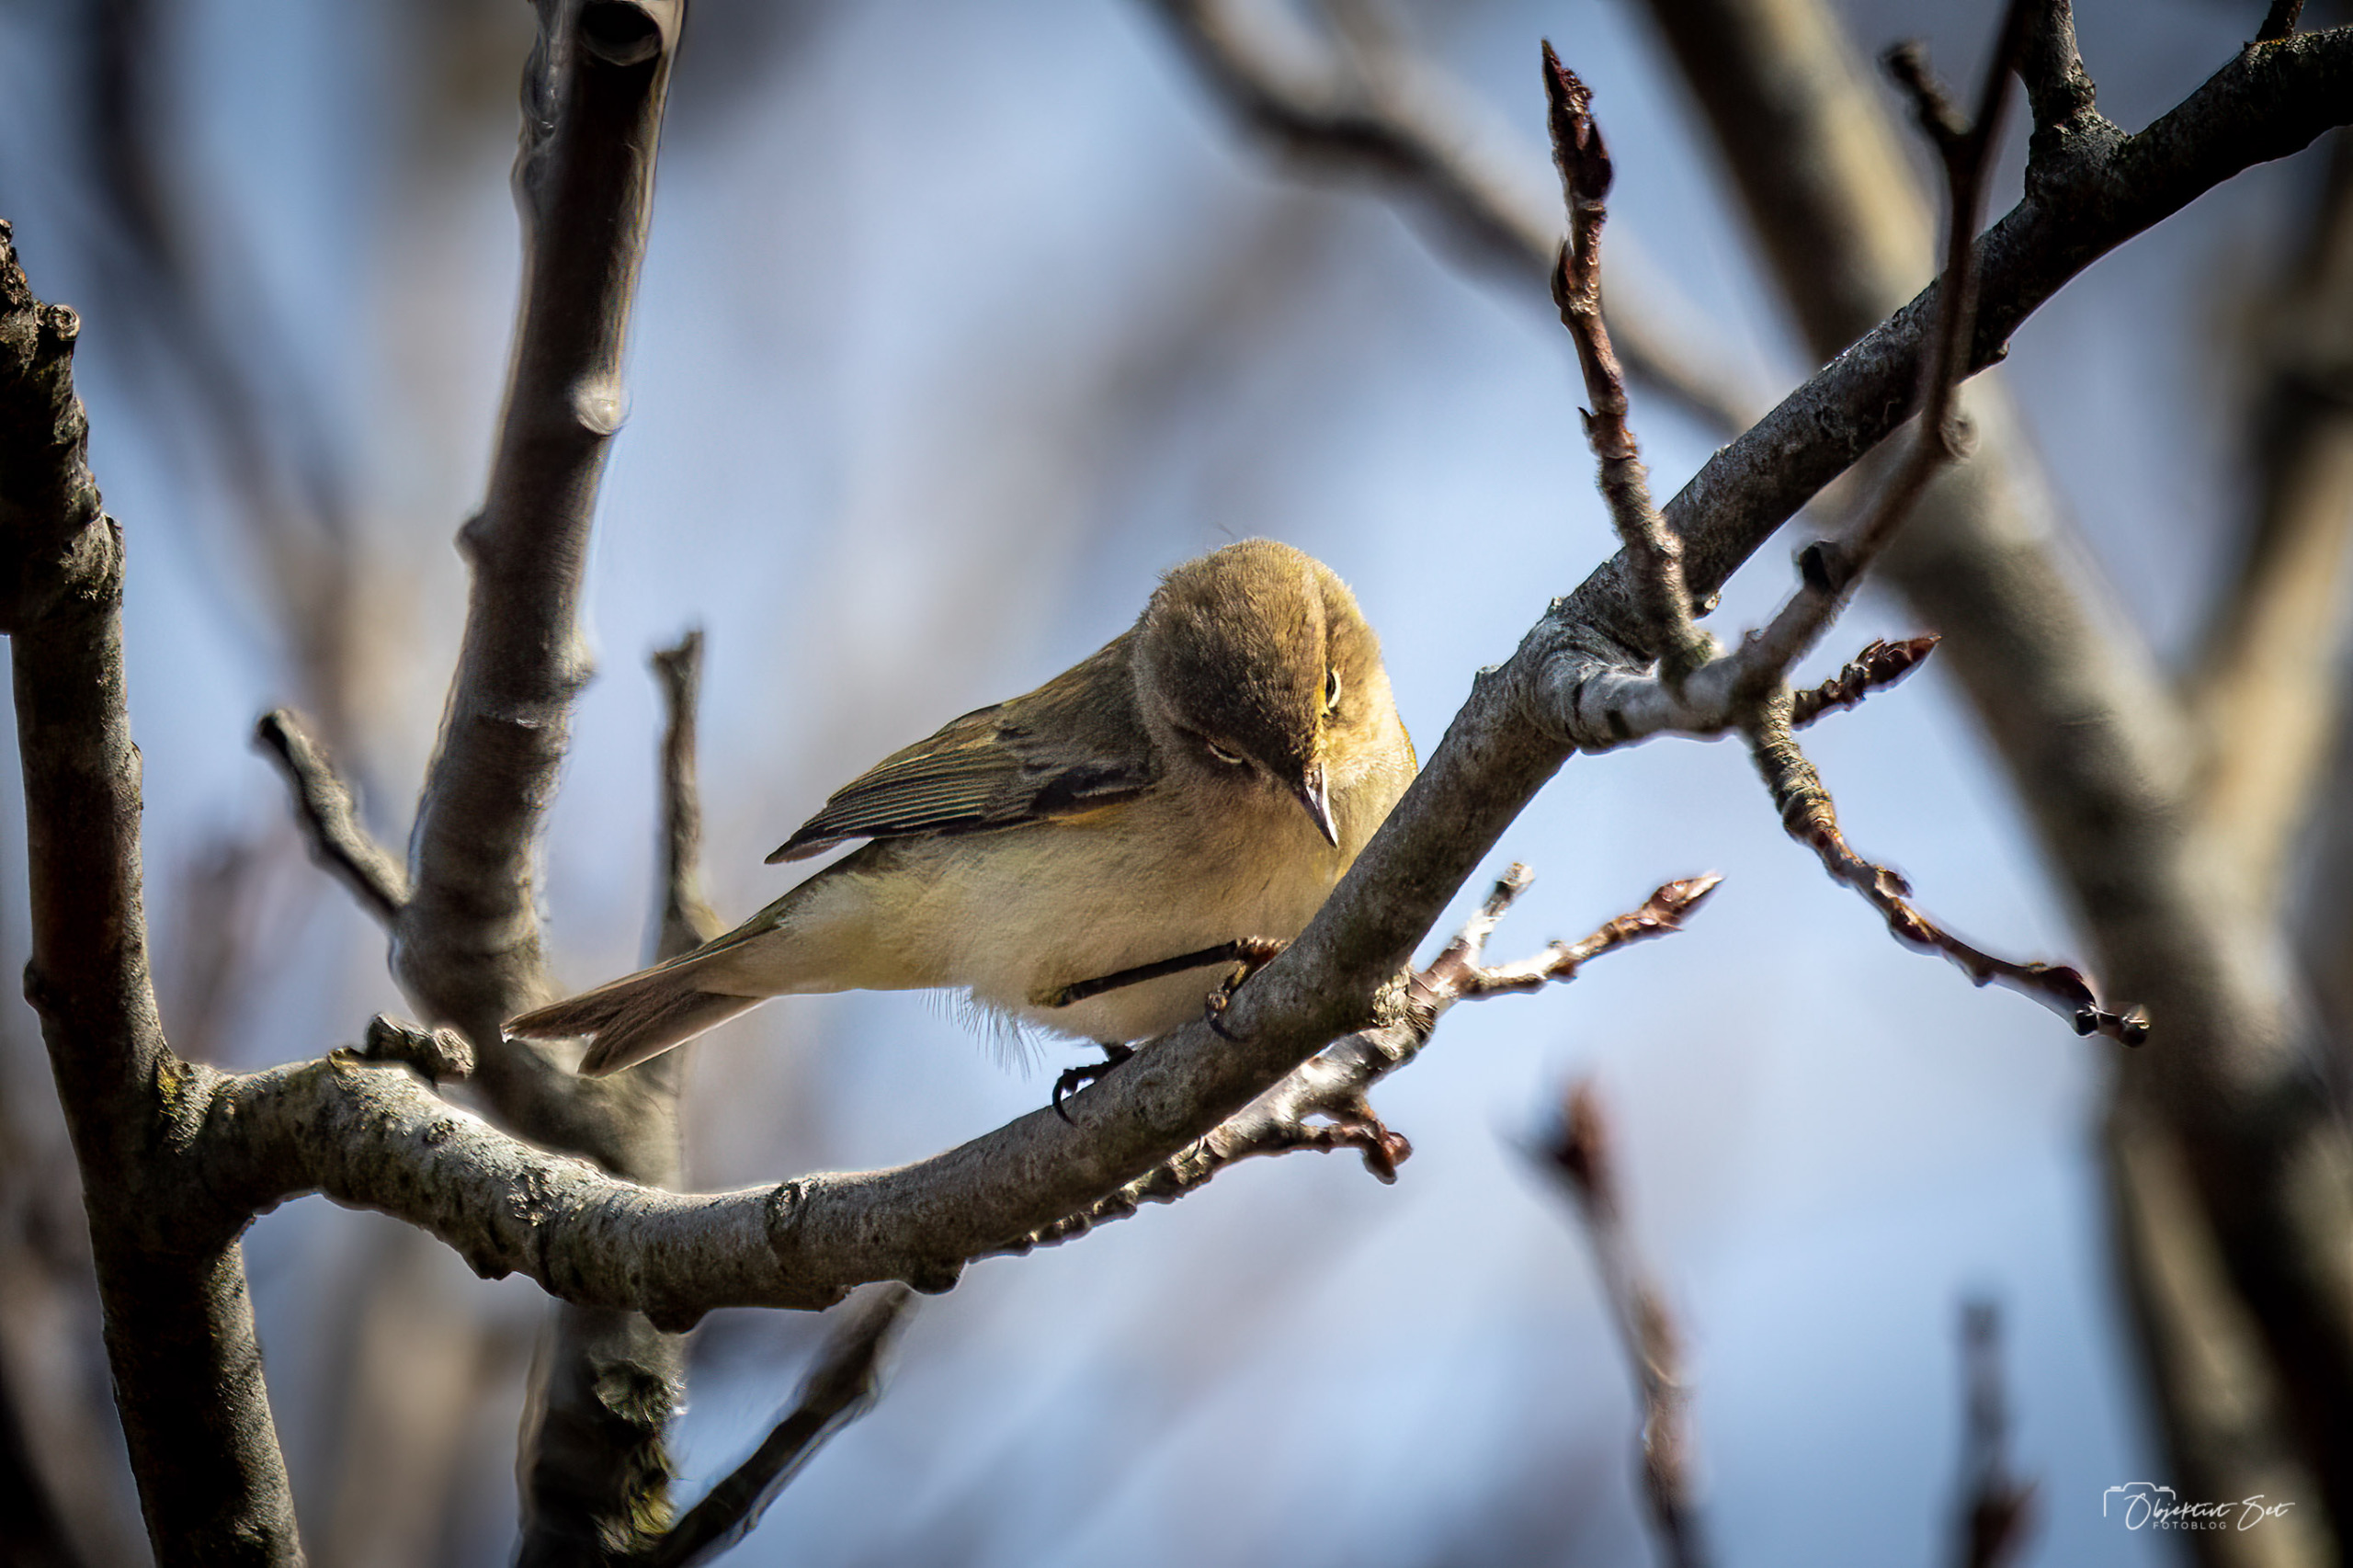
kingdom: Animalia
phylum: Chordata
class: Aves
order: Passeriformes
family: Phylloscopidae
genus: Phylloscopus
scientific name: Phylloscopus collybita
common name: Gransanger
